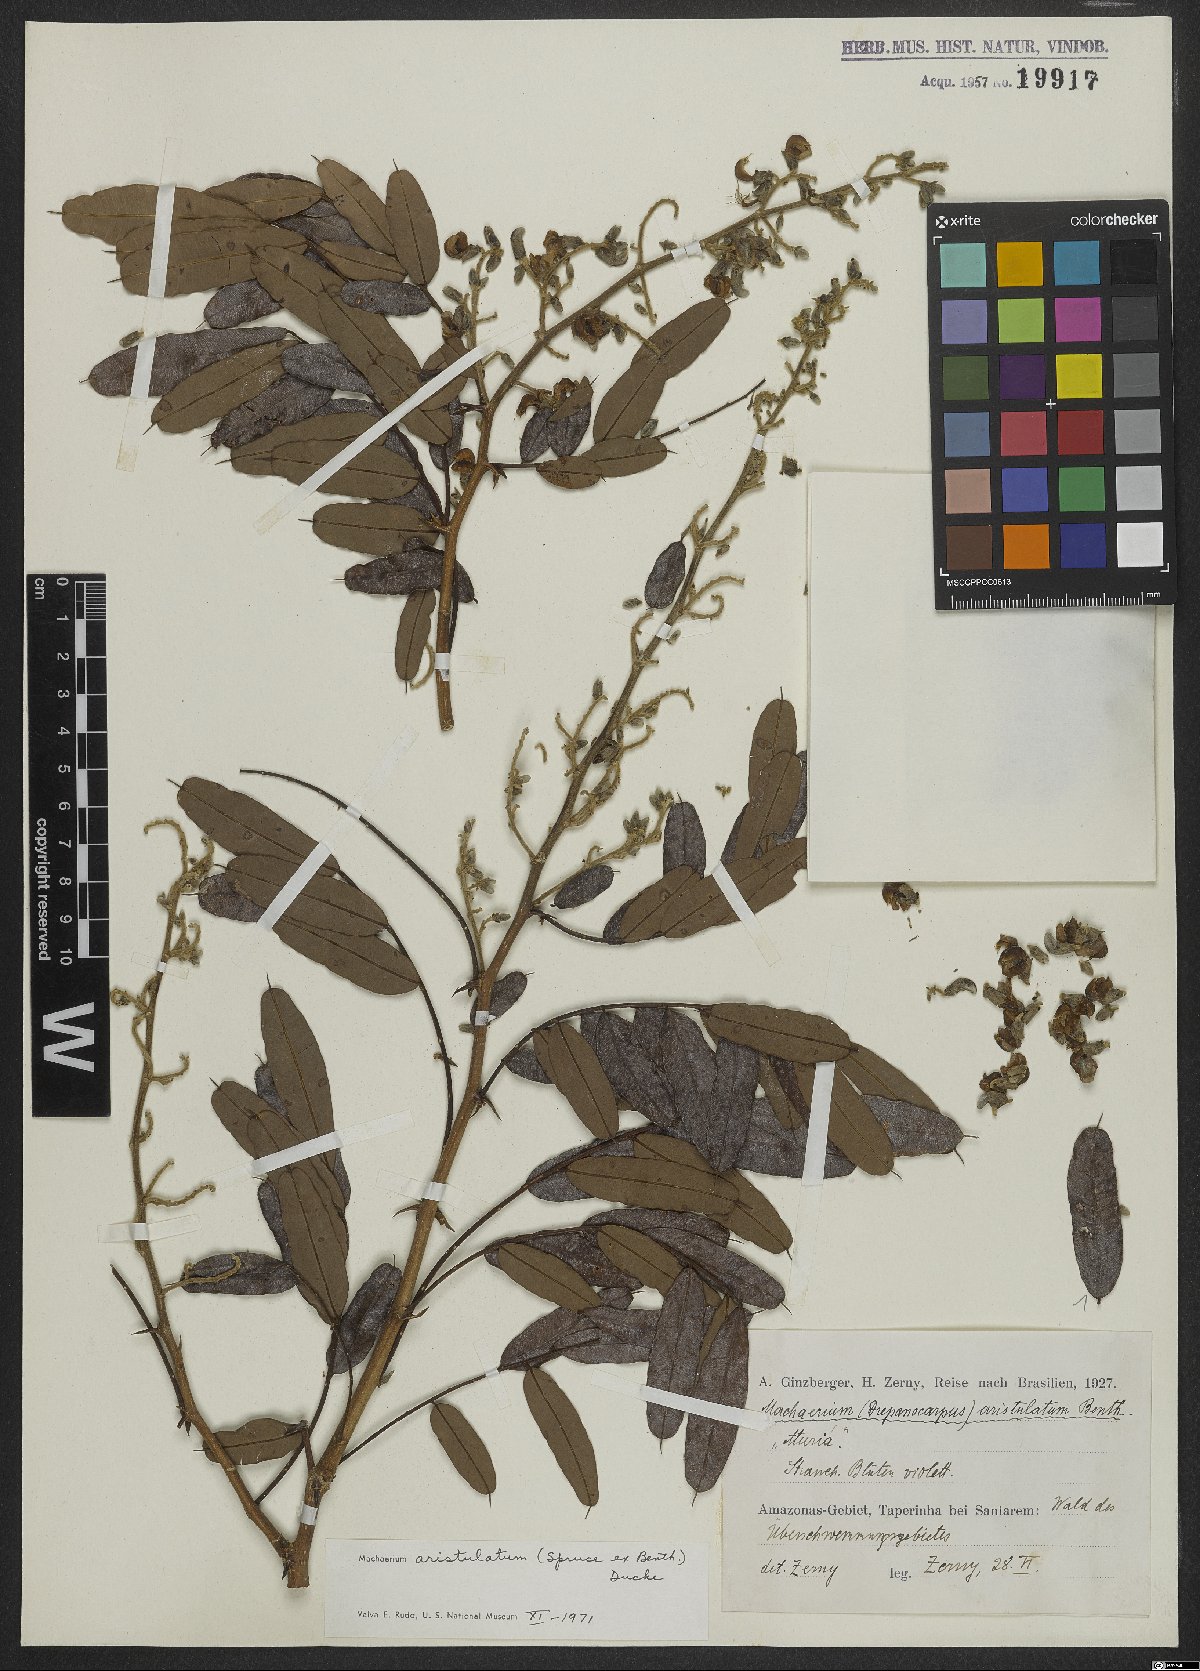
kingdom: Plantae
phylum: Tracheophyta
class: Magnoliopsida
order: Fabales
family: Fabaceae
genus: Machaerium
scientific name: Machaerium aristulatum
